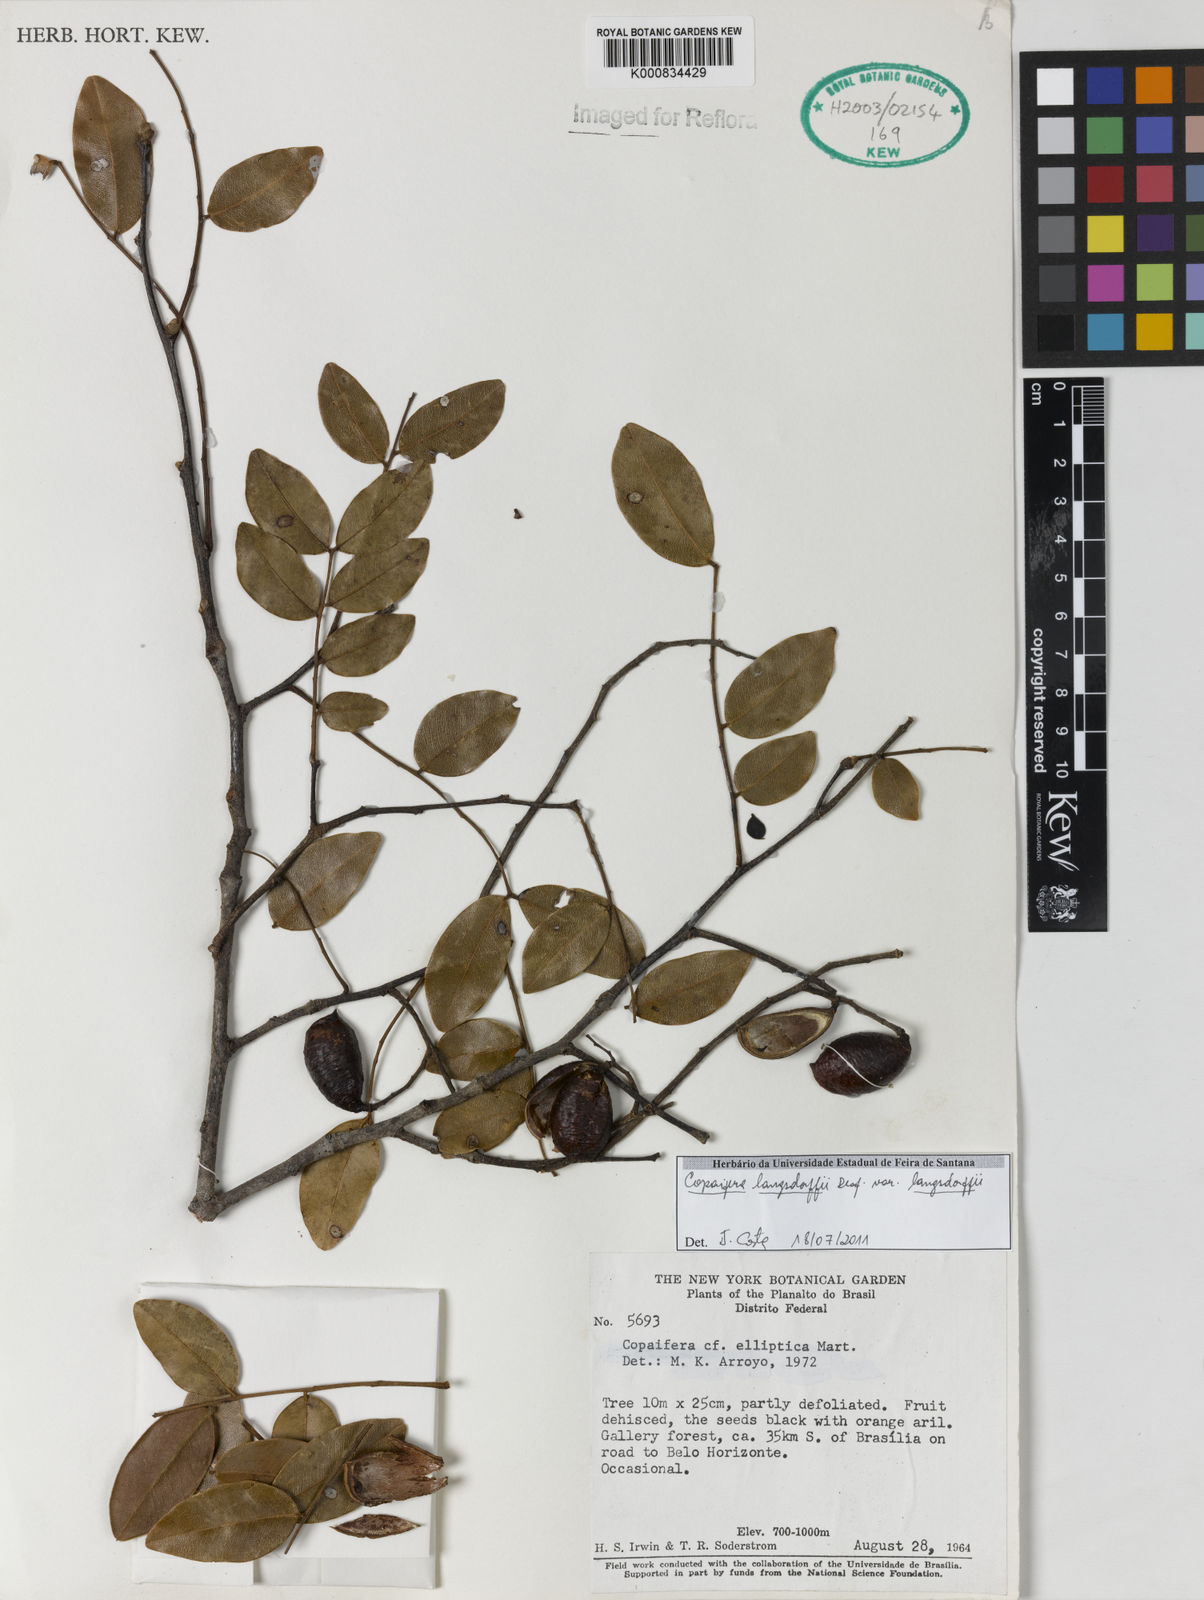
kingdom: Plantae
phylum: Tracheophyta
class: Magnoliopsida
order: Fabales
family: Fabaceae
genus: Copaifera
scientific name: Copaifera langsdorffii
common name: Brazilian diesel tree
